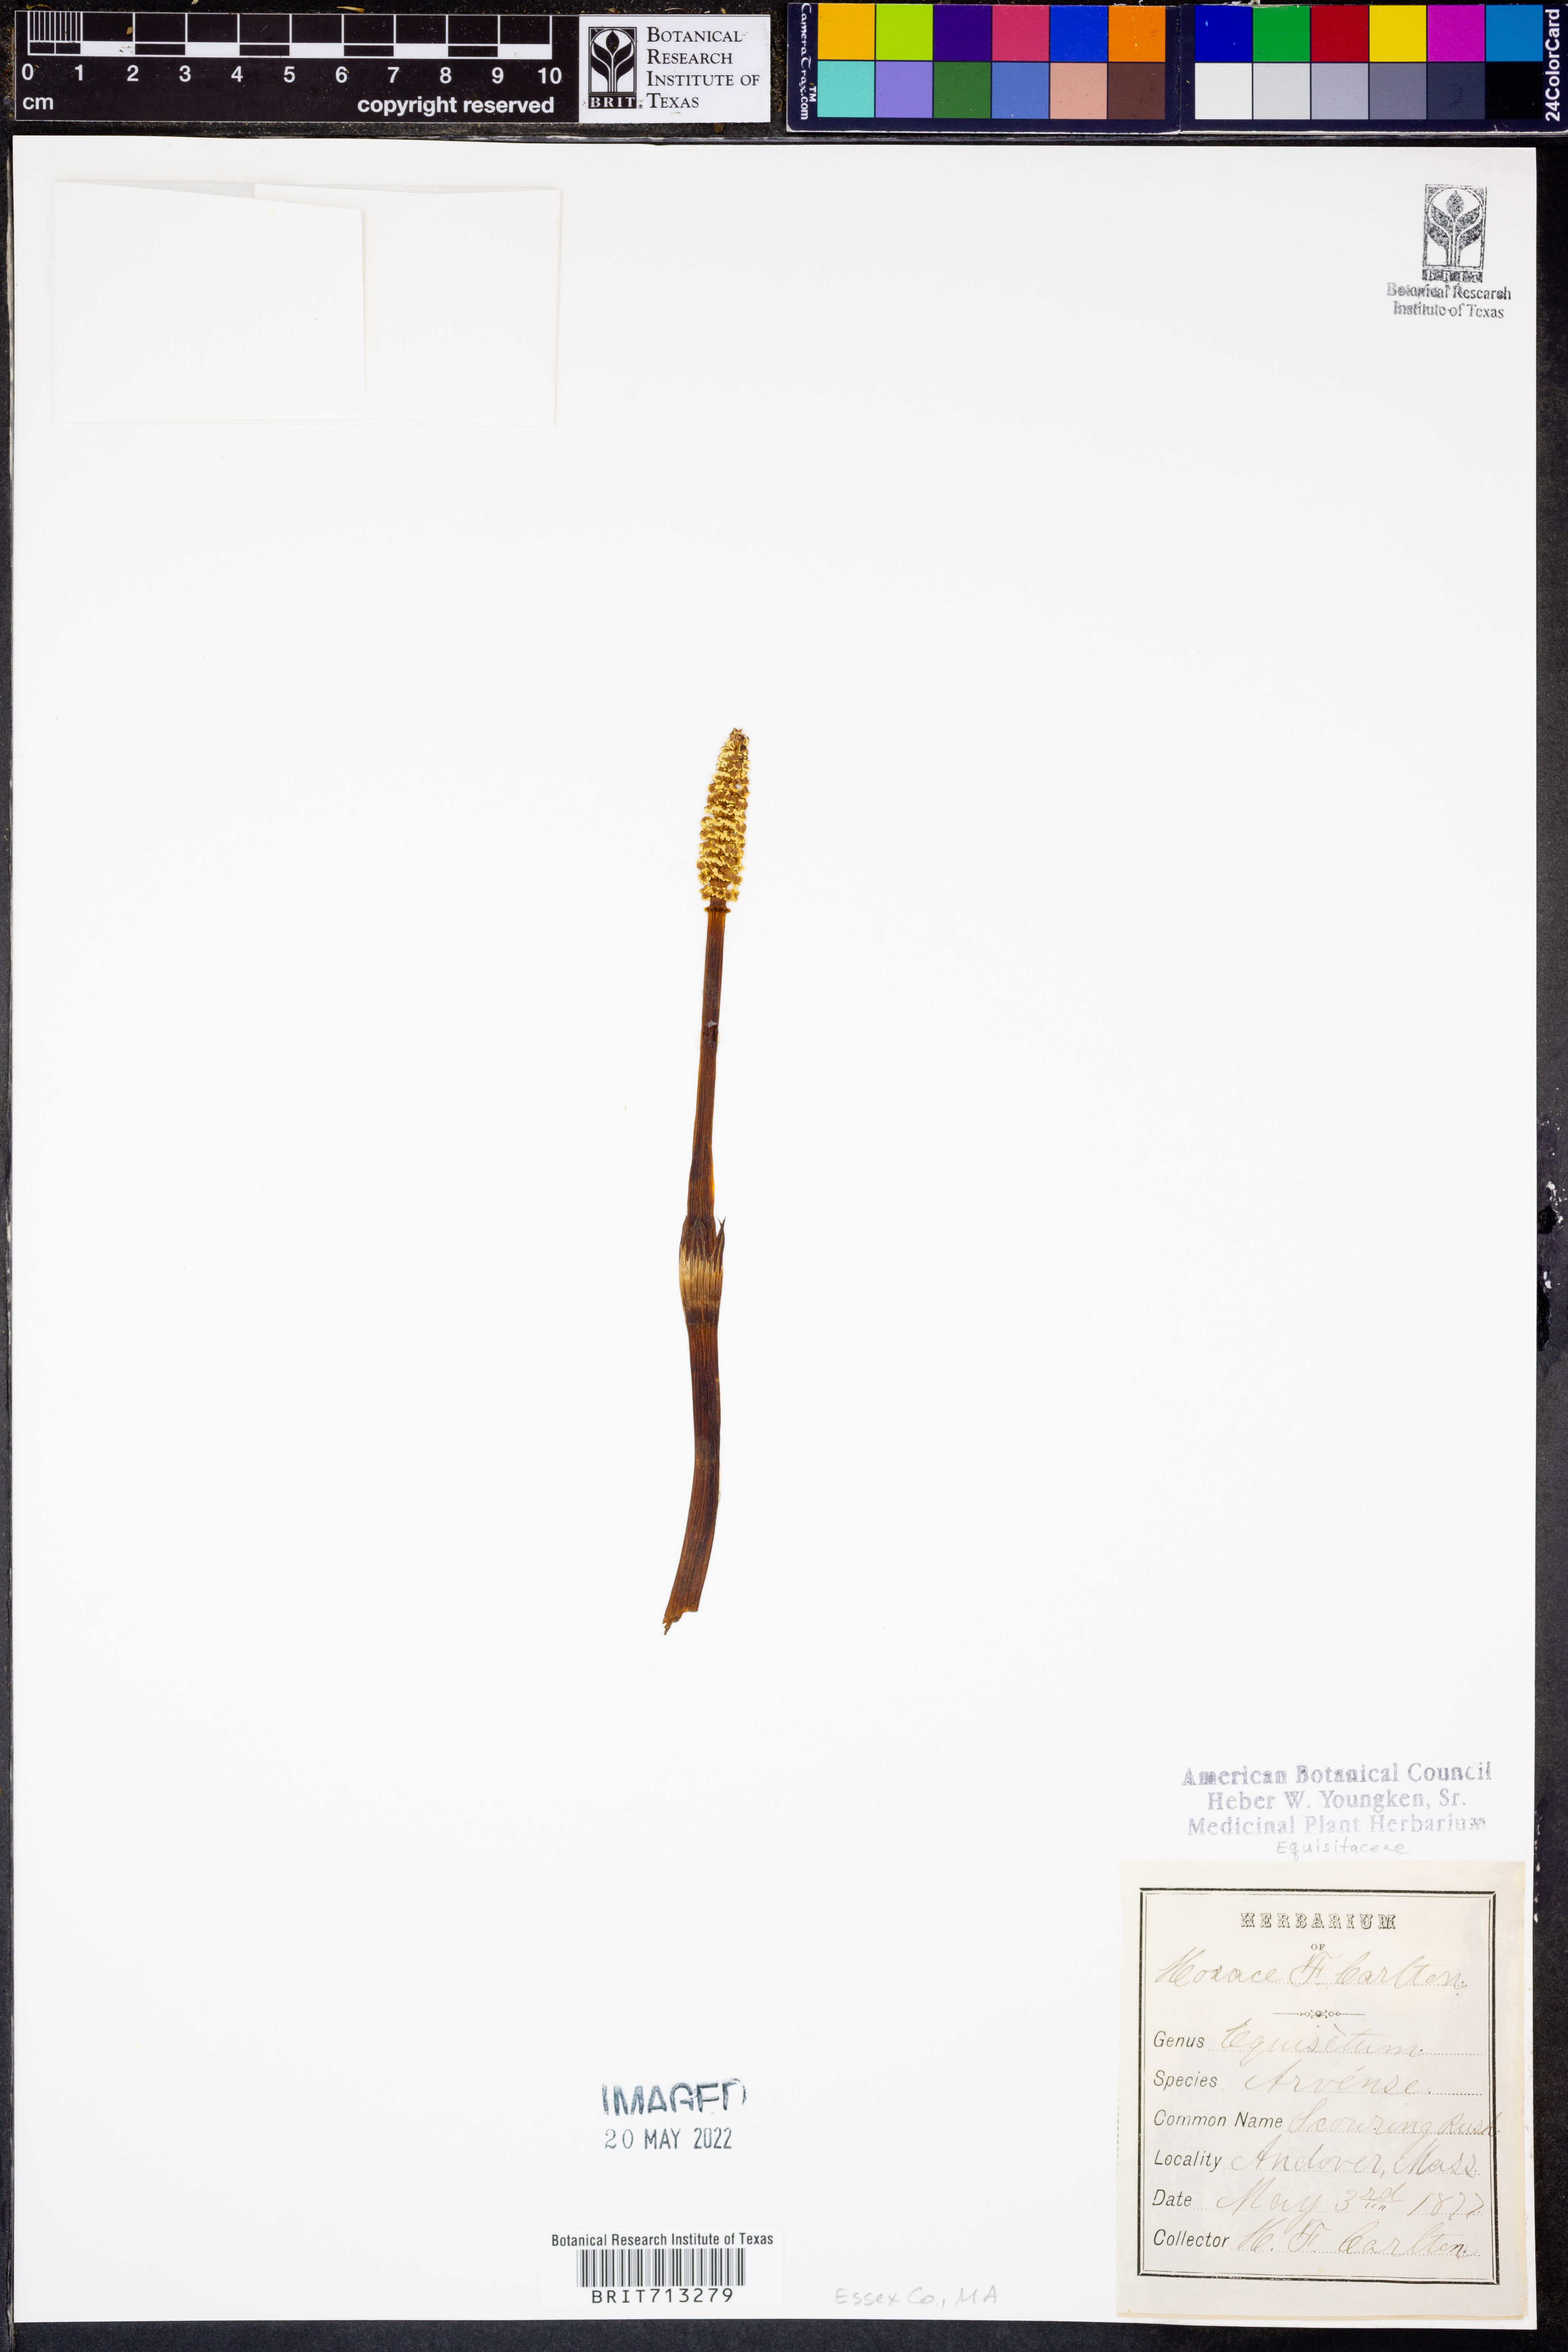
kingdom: Plantae
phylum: Tracheophyta
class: Polypodiopsida
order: Equisetales
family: Equisetaceae
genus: Equisetum
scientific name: Equisetum arvense
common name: Field horsetail
